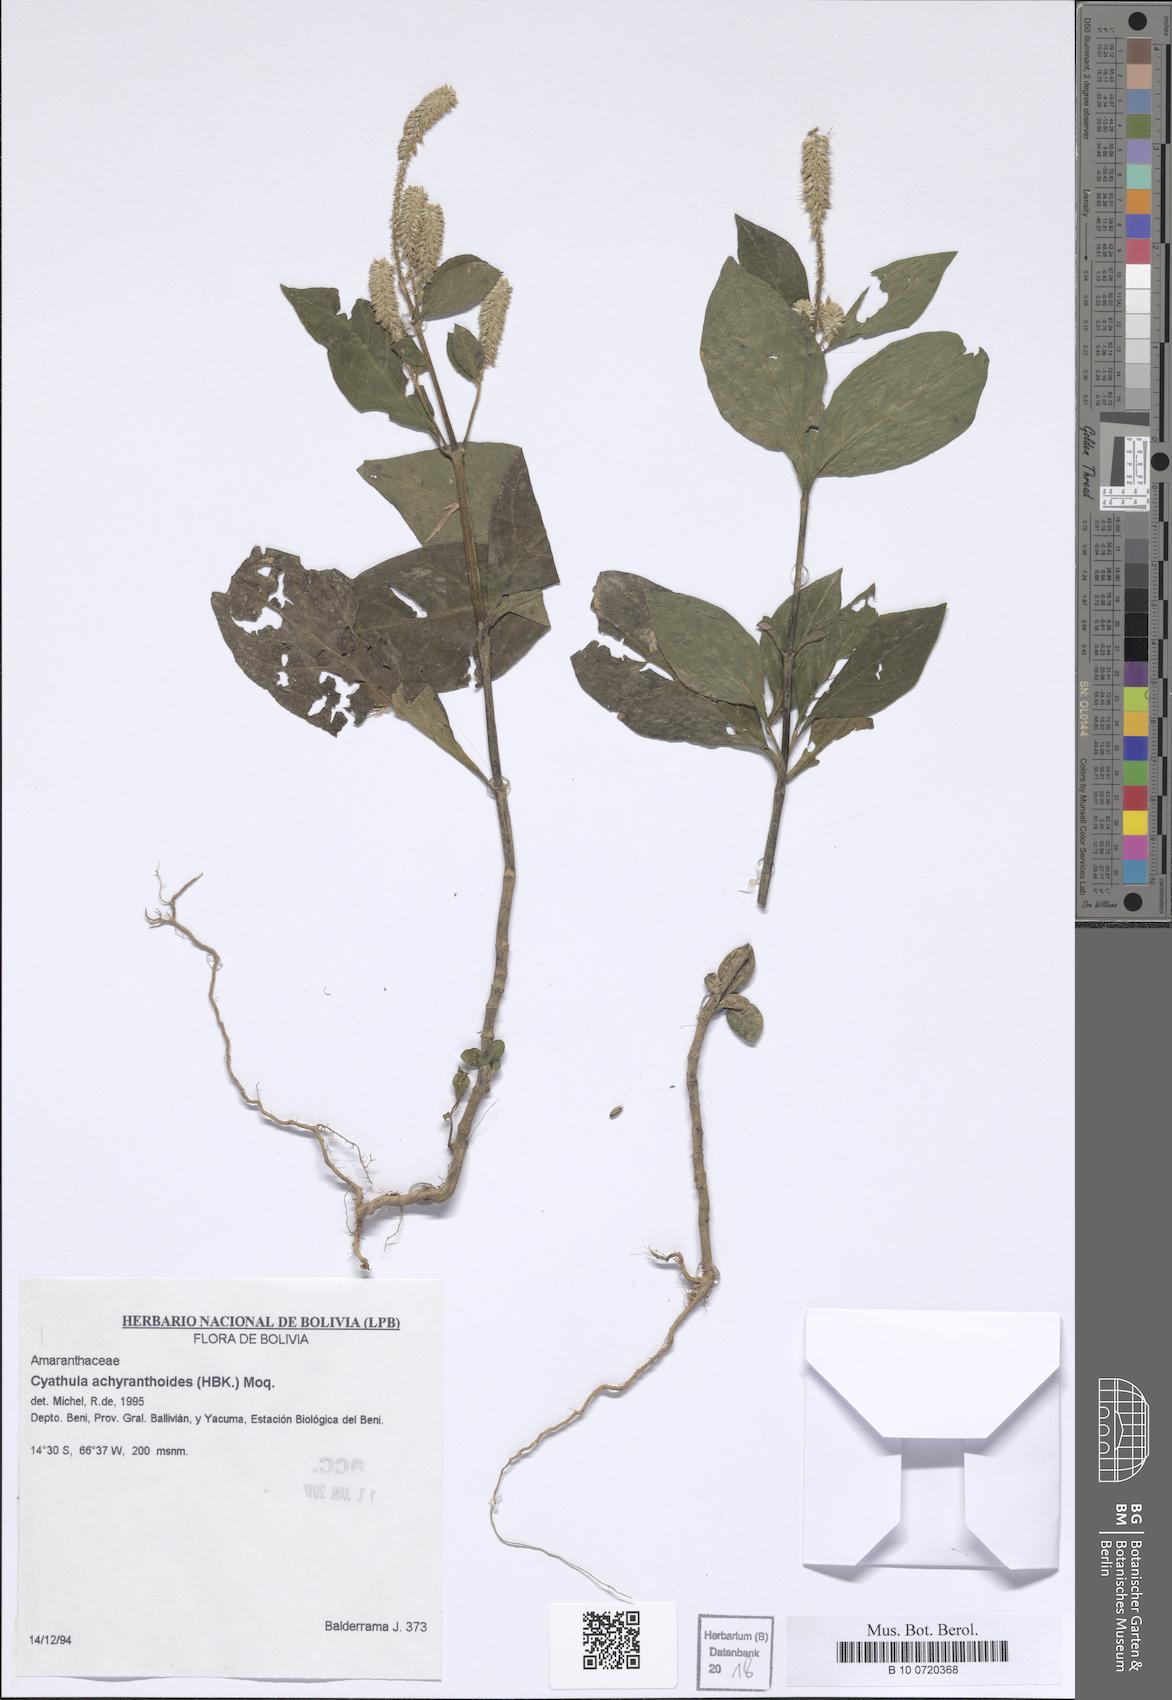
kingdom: Plantae
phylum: Tracheophyta
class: Magnoliopsida
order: Caryophyllales
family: Amaranthaceae
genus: Cyathula
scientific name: Cyathula achyranthoides
